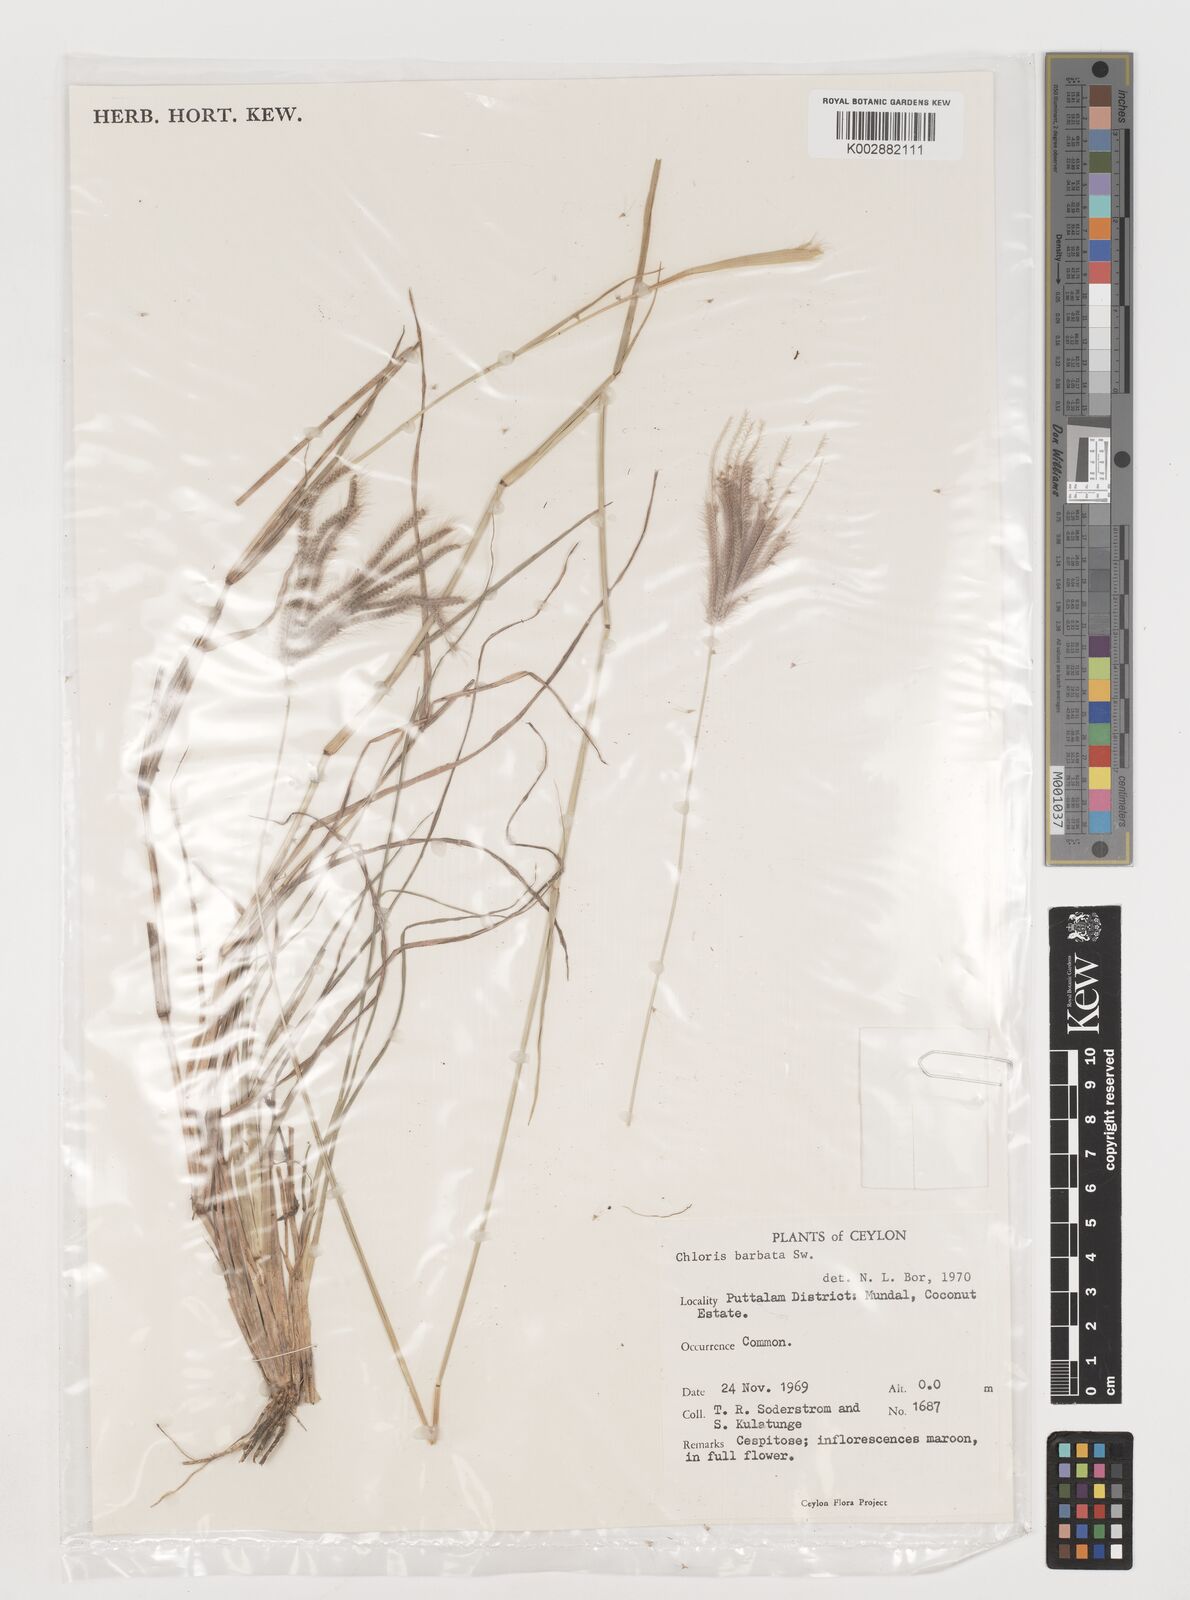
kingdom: Plantae
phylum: Tracheophyta
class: Liliopsida
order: Poales
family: Poaceae
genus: Chloris
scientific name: Chloris barbata
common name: Swollen fingergrass
